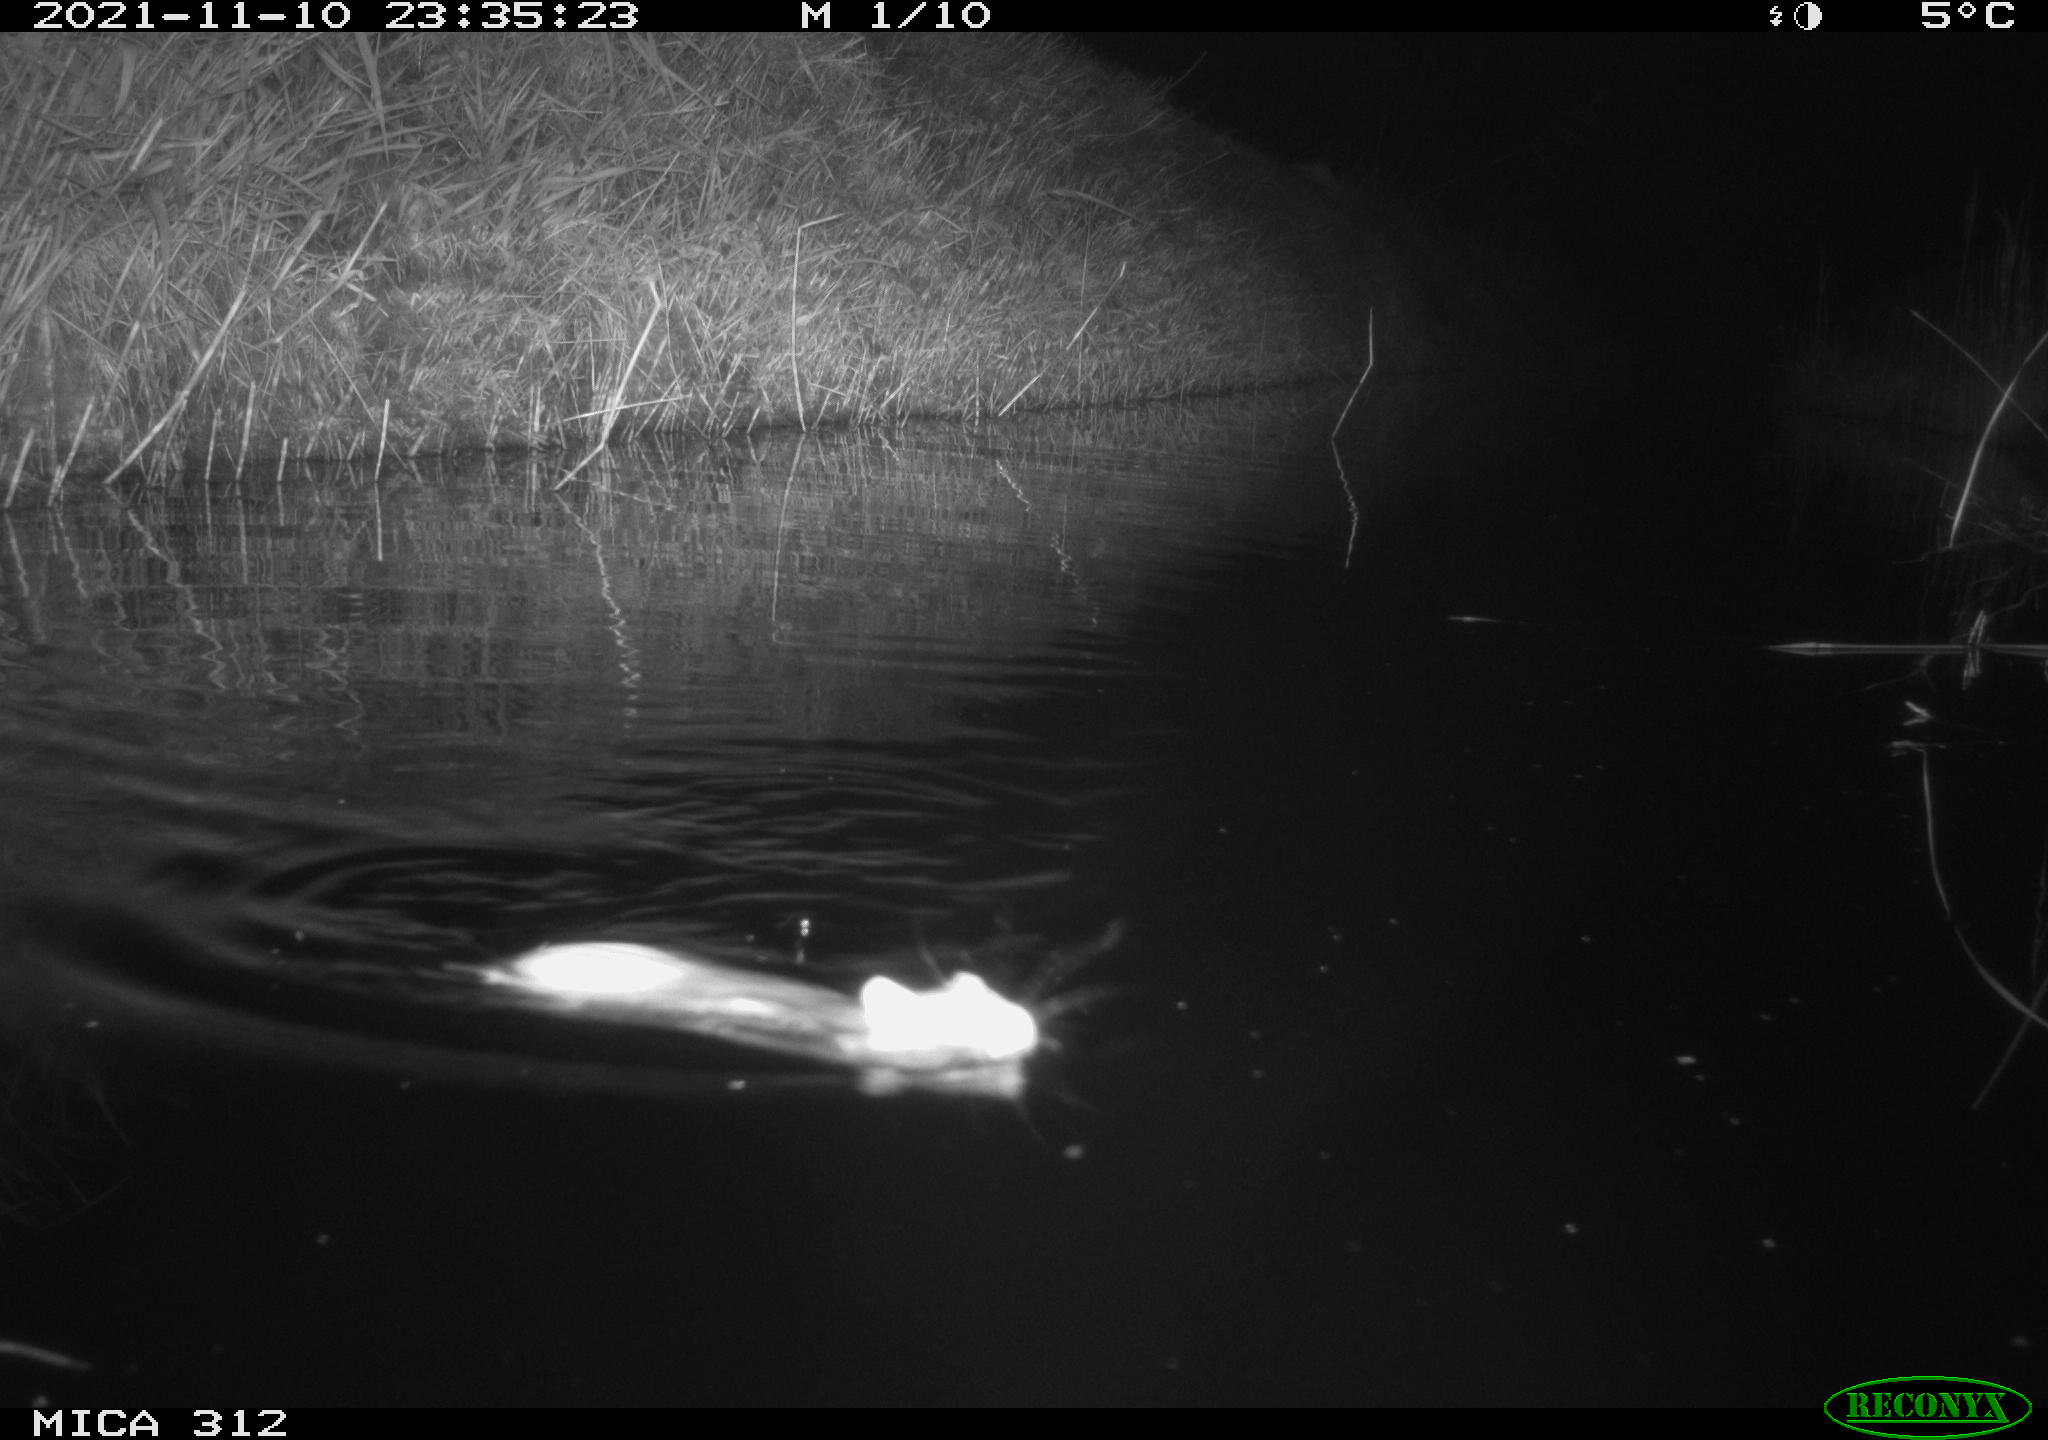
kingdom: Animalia
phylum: Chordata
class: Mammalia
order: Rodentia
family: Muridae
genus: Rattus
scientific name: Rattus norvegicus
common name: Brown rat
